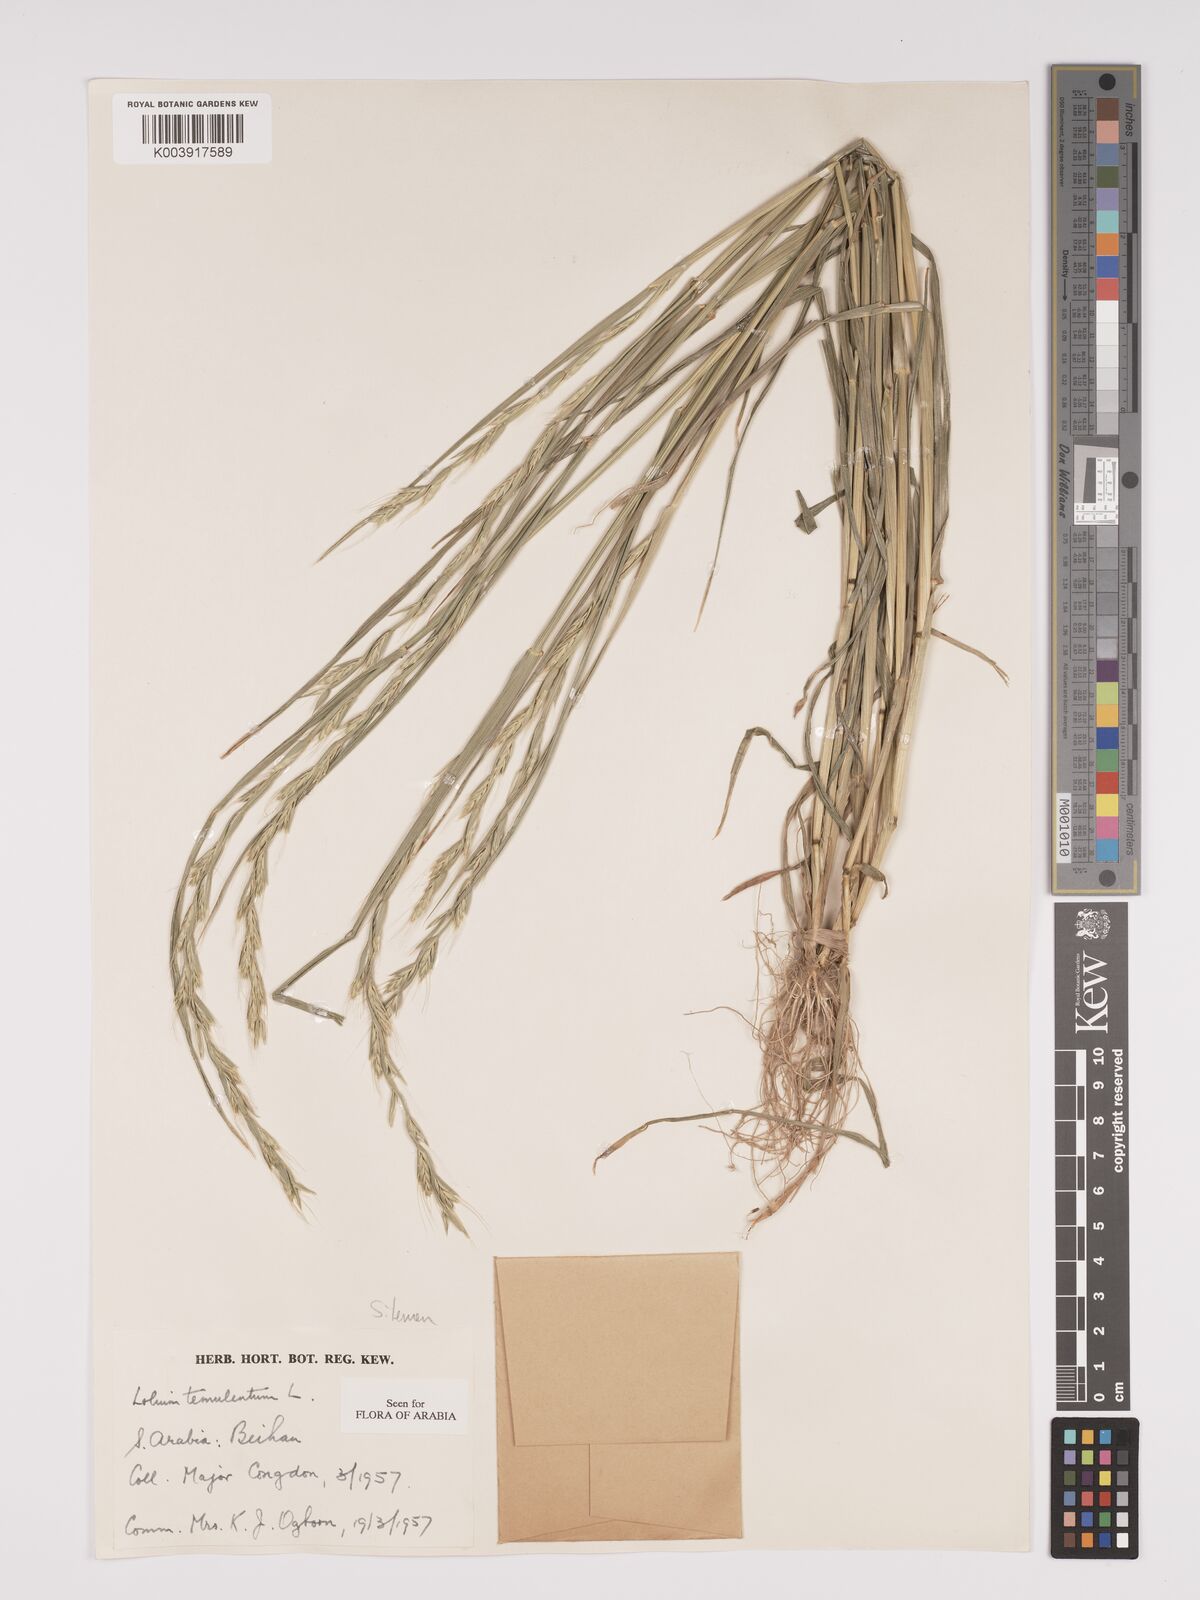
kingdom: Plantae
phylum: Tracheophyta
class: Liliopsida
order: Poales
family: Poaceae
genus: Lolium
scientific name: Lolium temulentum
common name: Darnel
